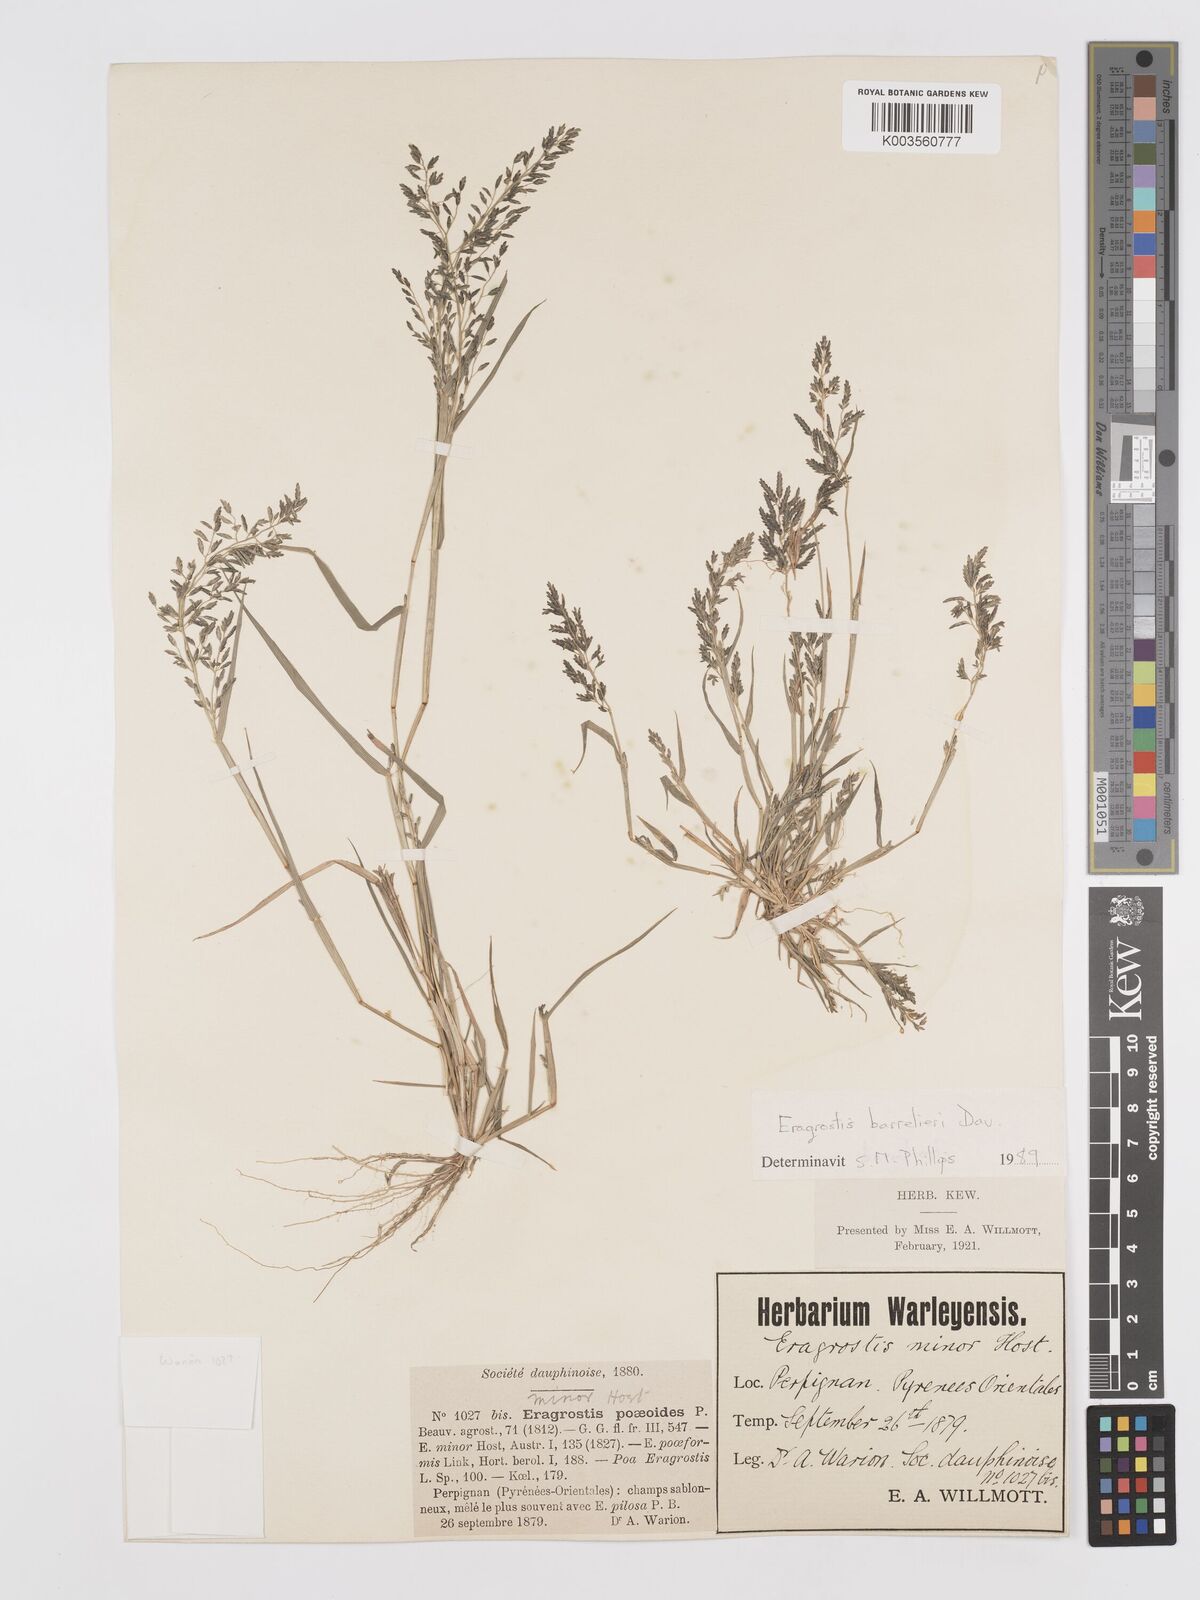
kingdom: Plantae
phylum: Tracheophyta
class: Liliopsida
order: Poales
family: Poaceae
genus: Eragrostis
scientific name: Eragrostis barrelieri
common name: Mediterranean lovegrass
